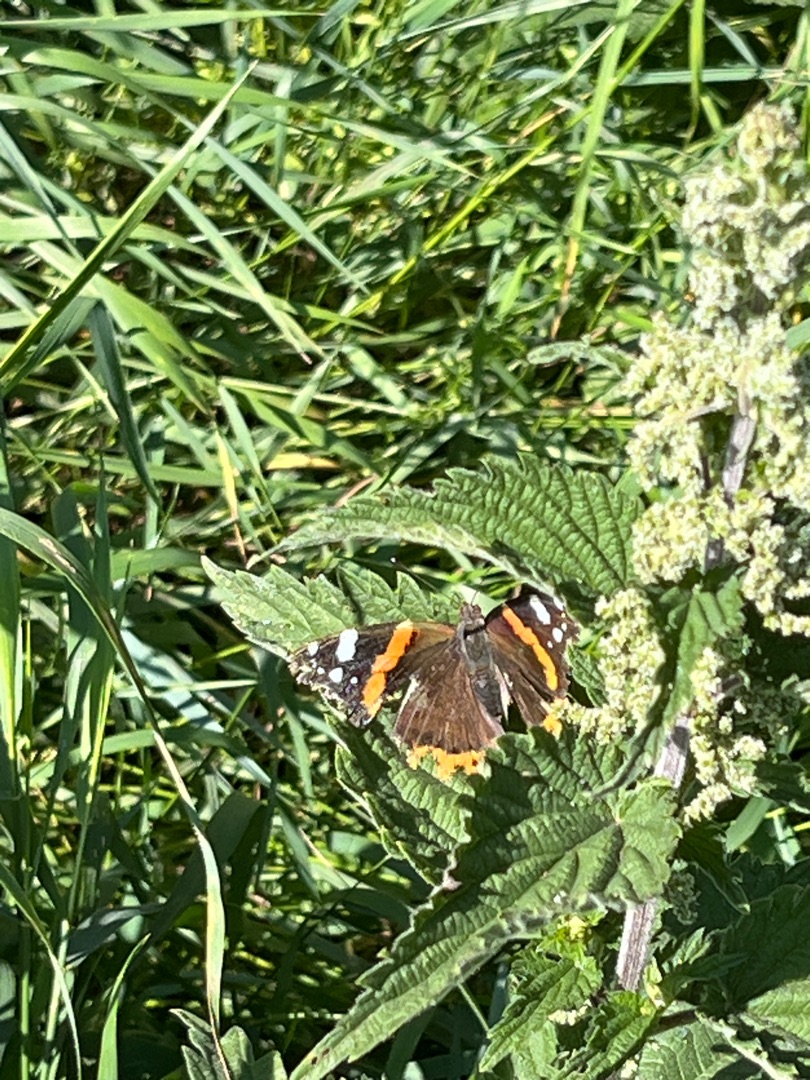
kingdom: Animalia
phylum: Arthropoda
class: Insecta
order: Lepidoptera
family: Nymphalidae
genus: Vanessa
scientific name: Vanessa atalanta
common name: Admiral
